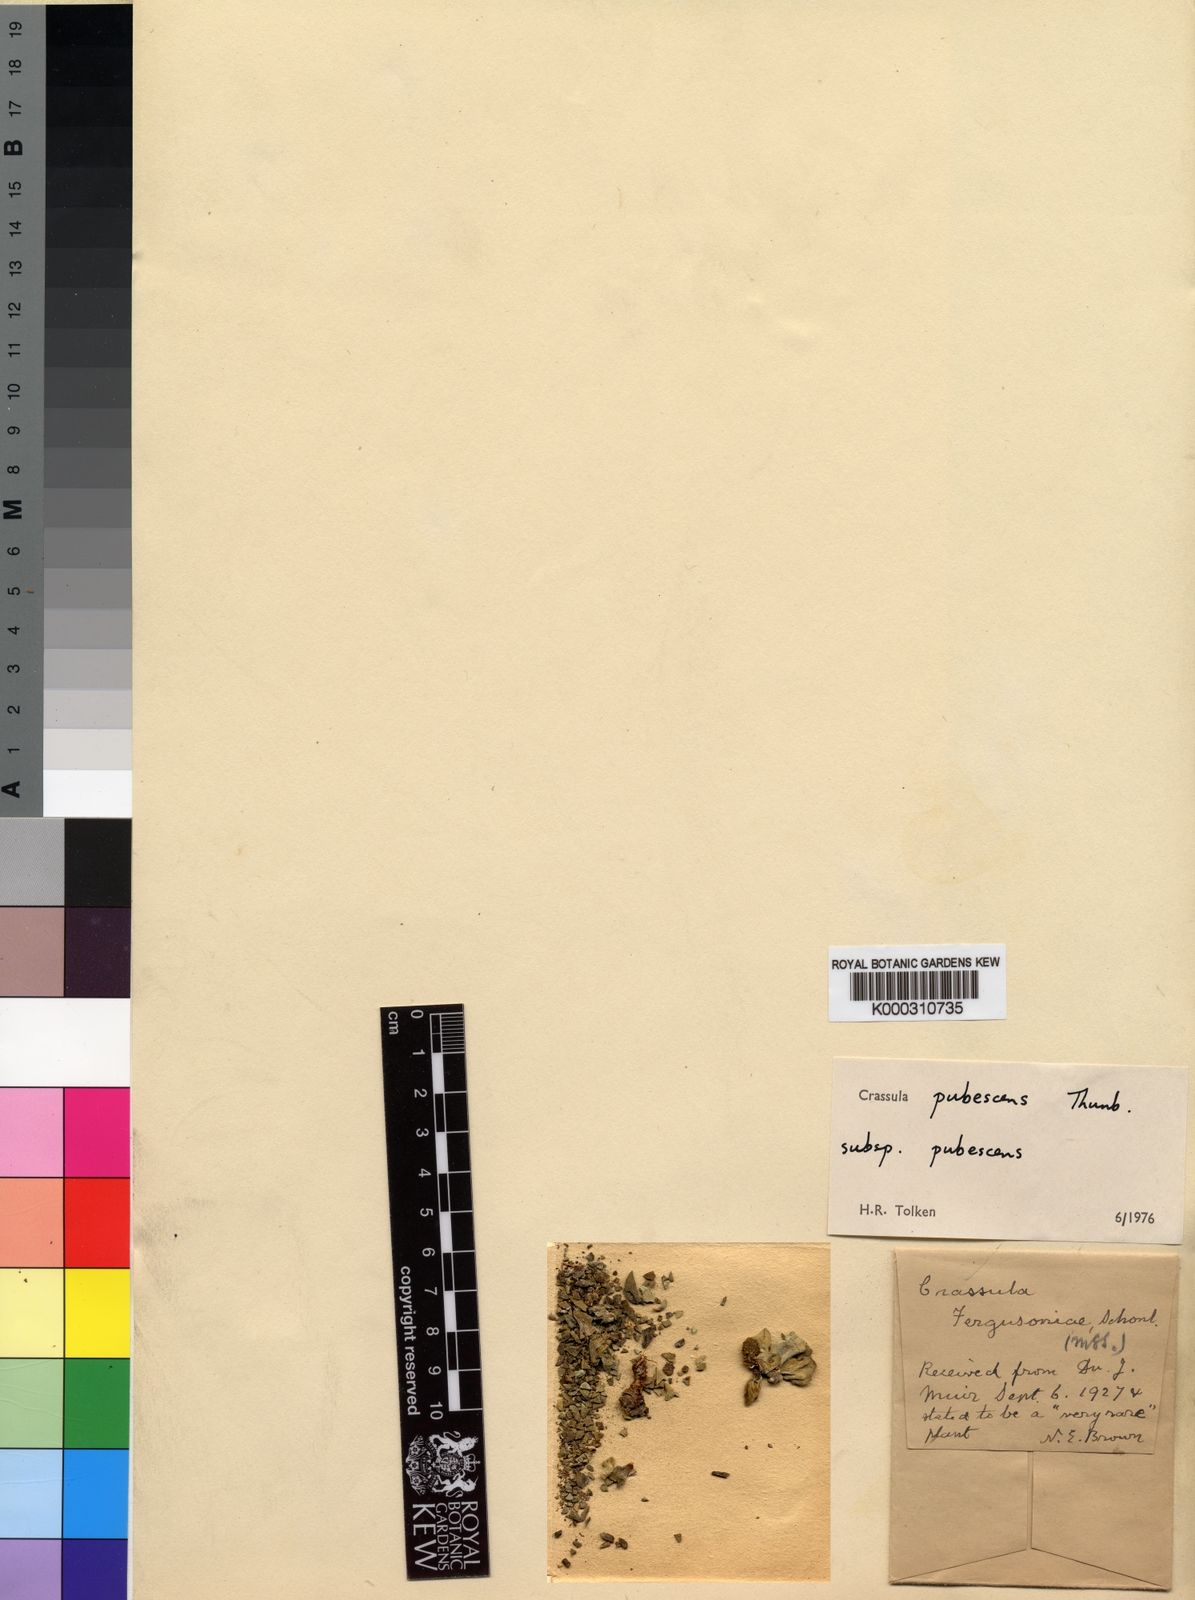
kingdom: Plantae
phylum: Tracheophyta
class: Magnoliopsida
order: Saxifragales
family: Crassulaceae
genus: Crassula
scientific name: Crassula pubescens
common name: Jersey pigmyweed
